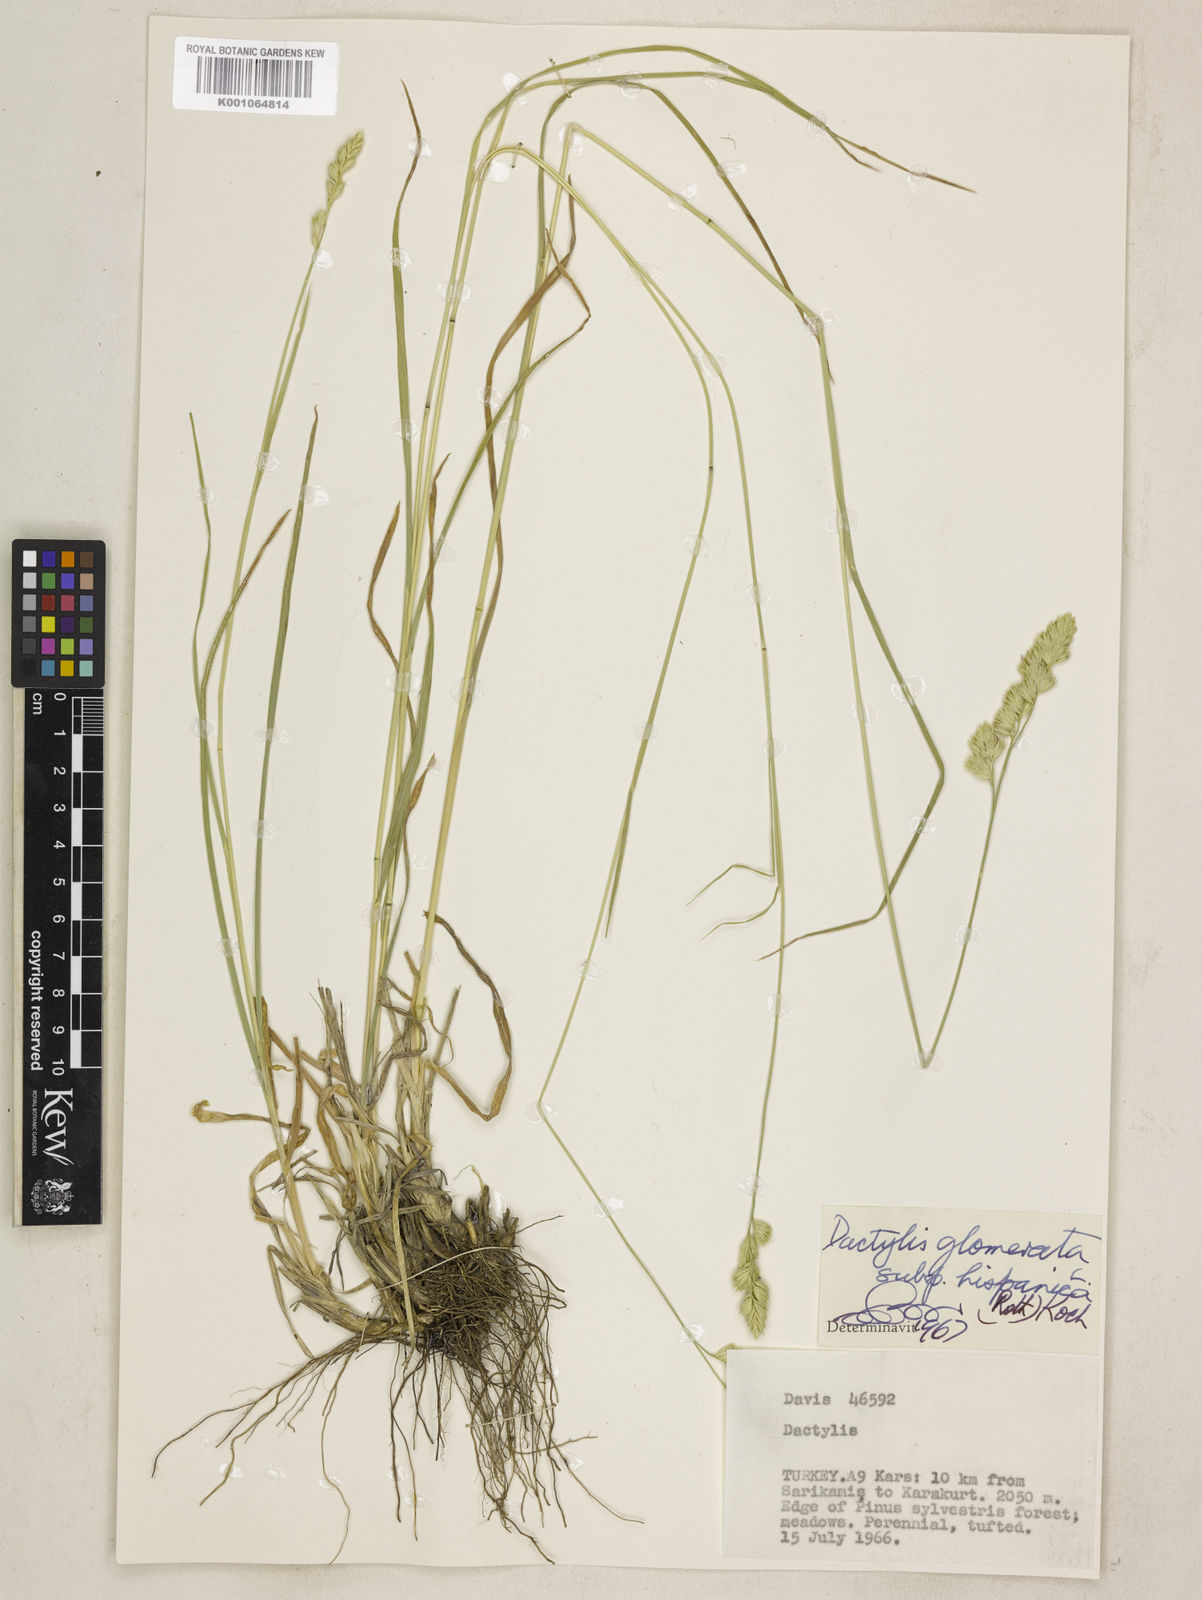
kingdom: Plantae
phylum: Tracheophyta
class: Liliopsida
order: Poales
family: Poaceae
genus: Dactylis
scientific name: Dactylis glomerata
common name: Orchardgrass
